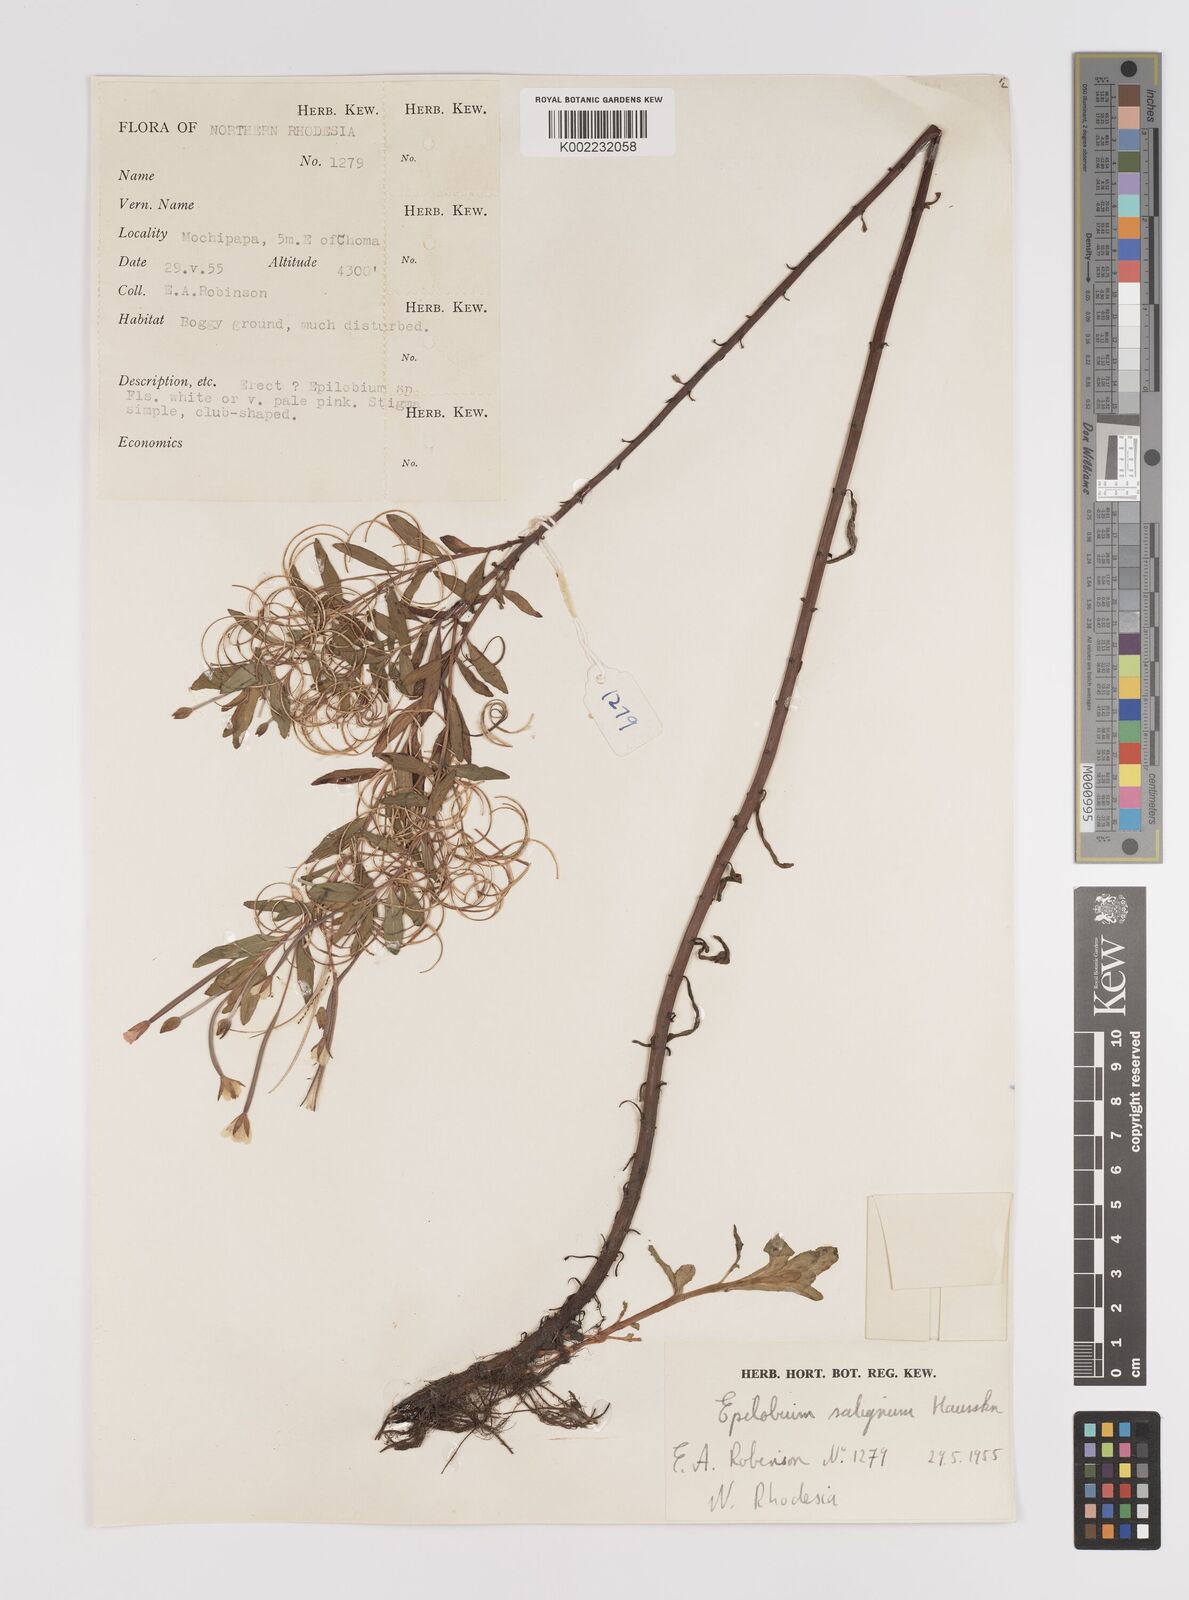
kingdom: Plantae
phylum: Tracheophyta
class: Magnoliopsida
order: Myrtales
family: Onagraceae
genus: Epilobium
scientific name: Epilobium salignum
